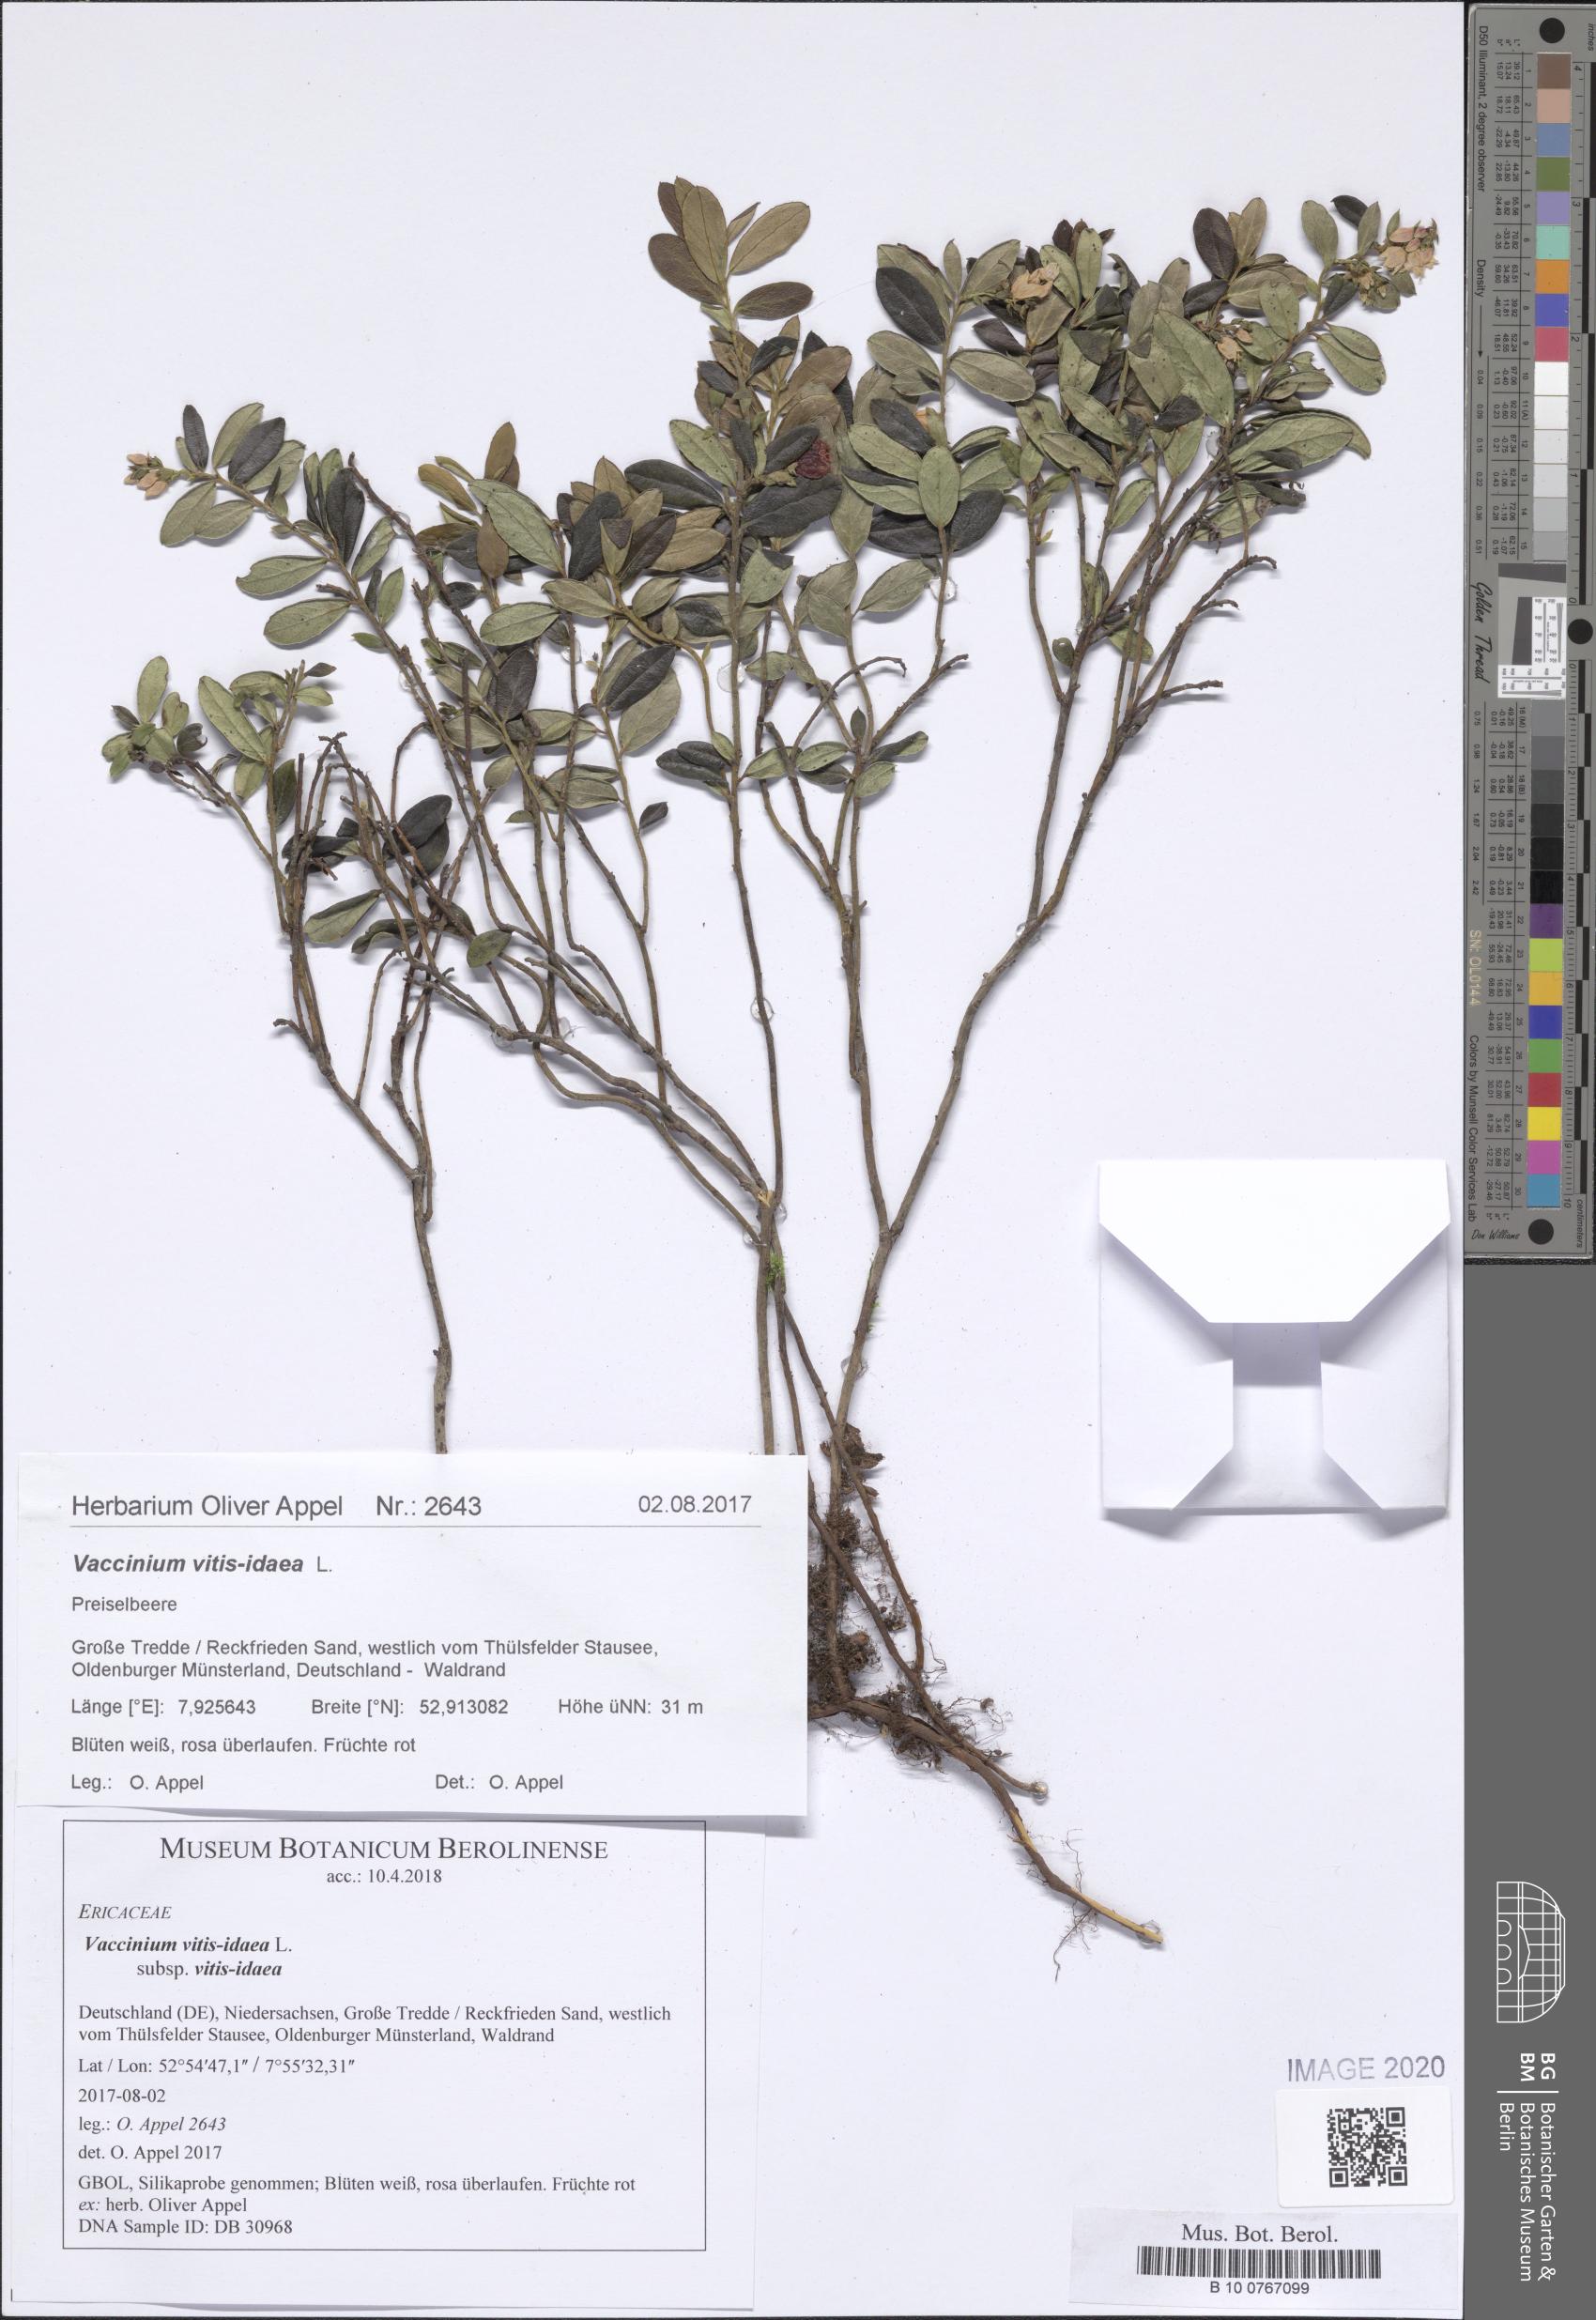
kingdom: Plantae
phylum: Tracheophyta
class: Magnoliopsida
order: Ericales
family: Ericaceae
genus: Vaccinium
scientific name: Vaccinium vitis-idaea
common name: Cowberry
